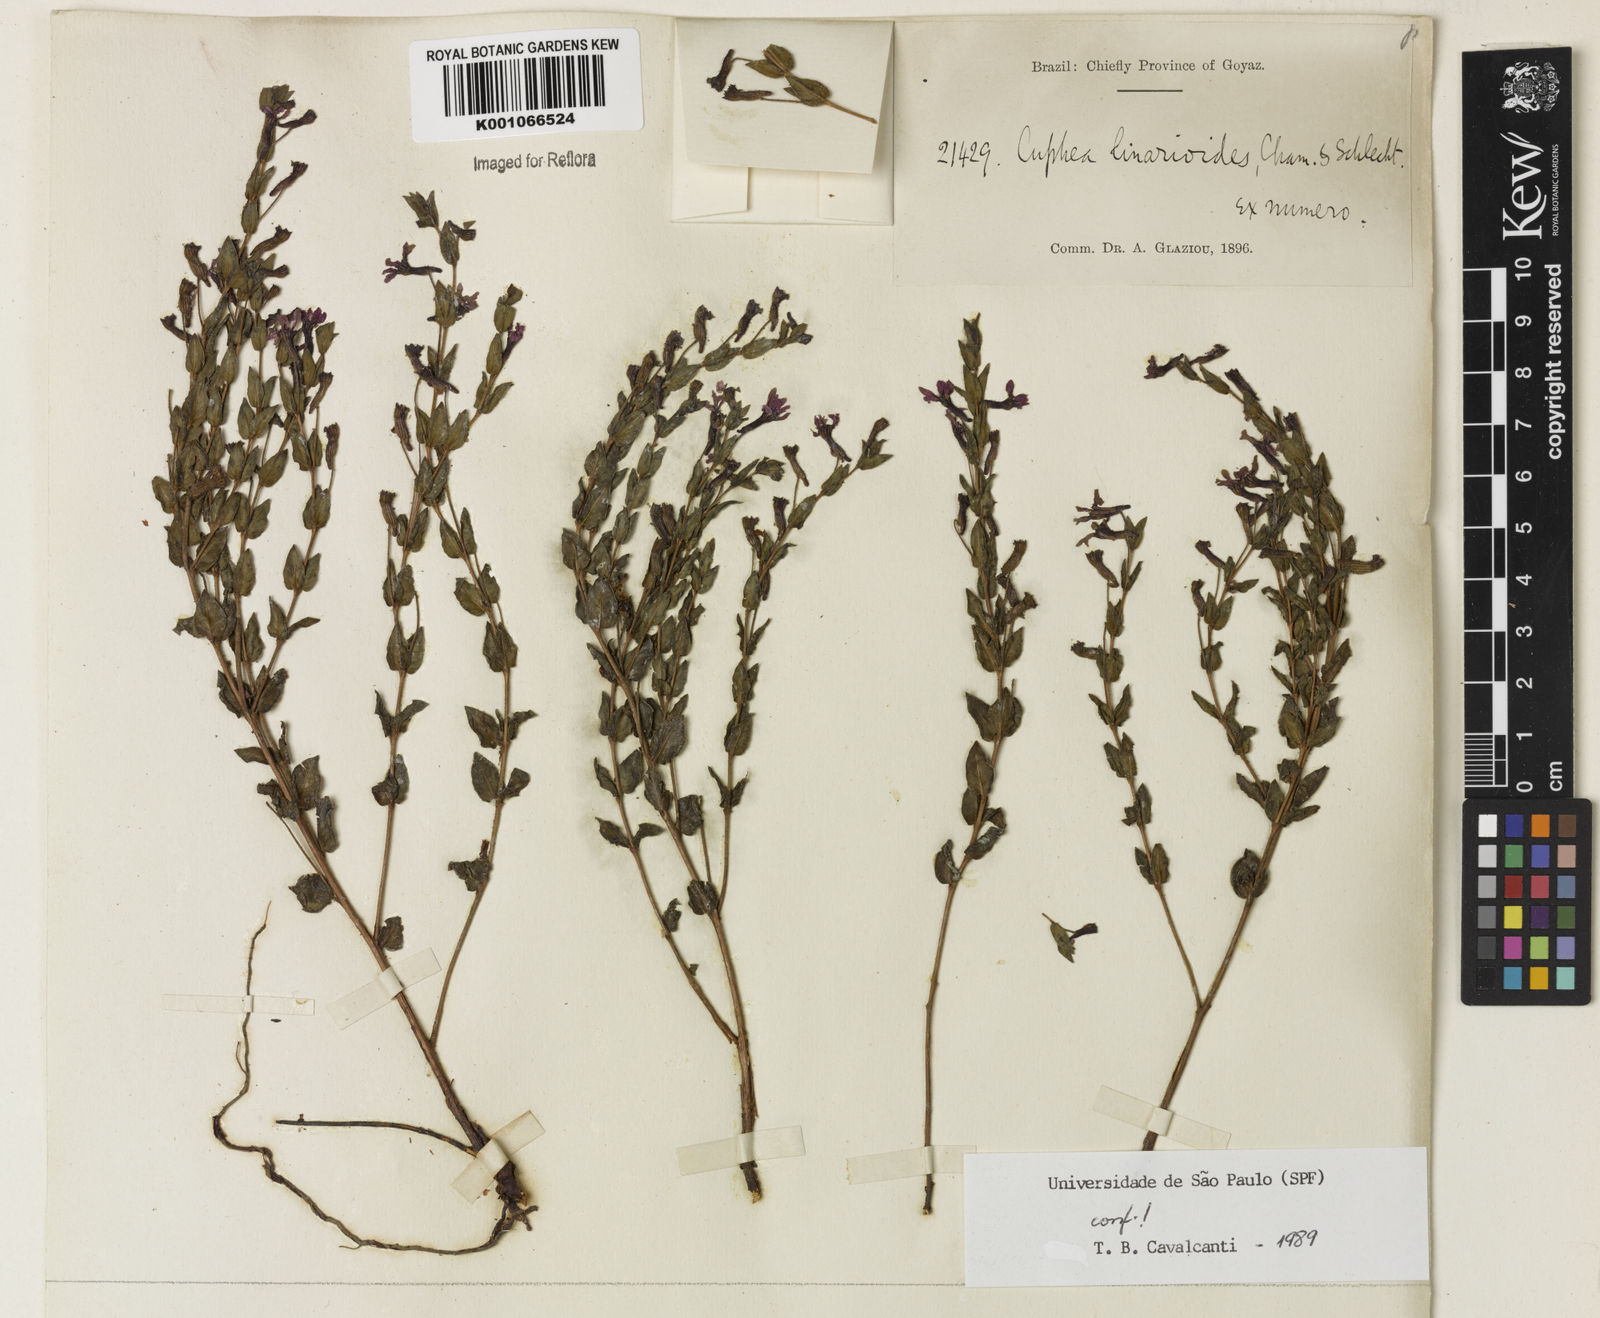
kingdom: Plantae
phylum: Tracheophyta
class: Magnoliopsida
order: Myrtales
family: Lythraceae
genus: Cuphea
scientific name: Cuphea linarioides
